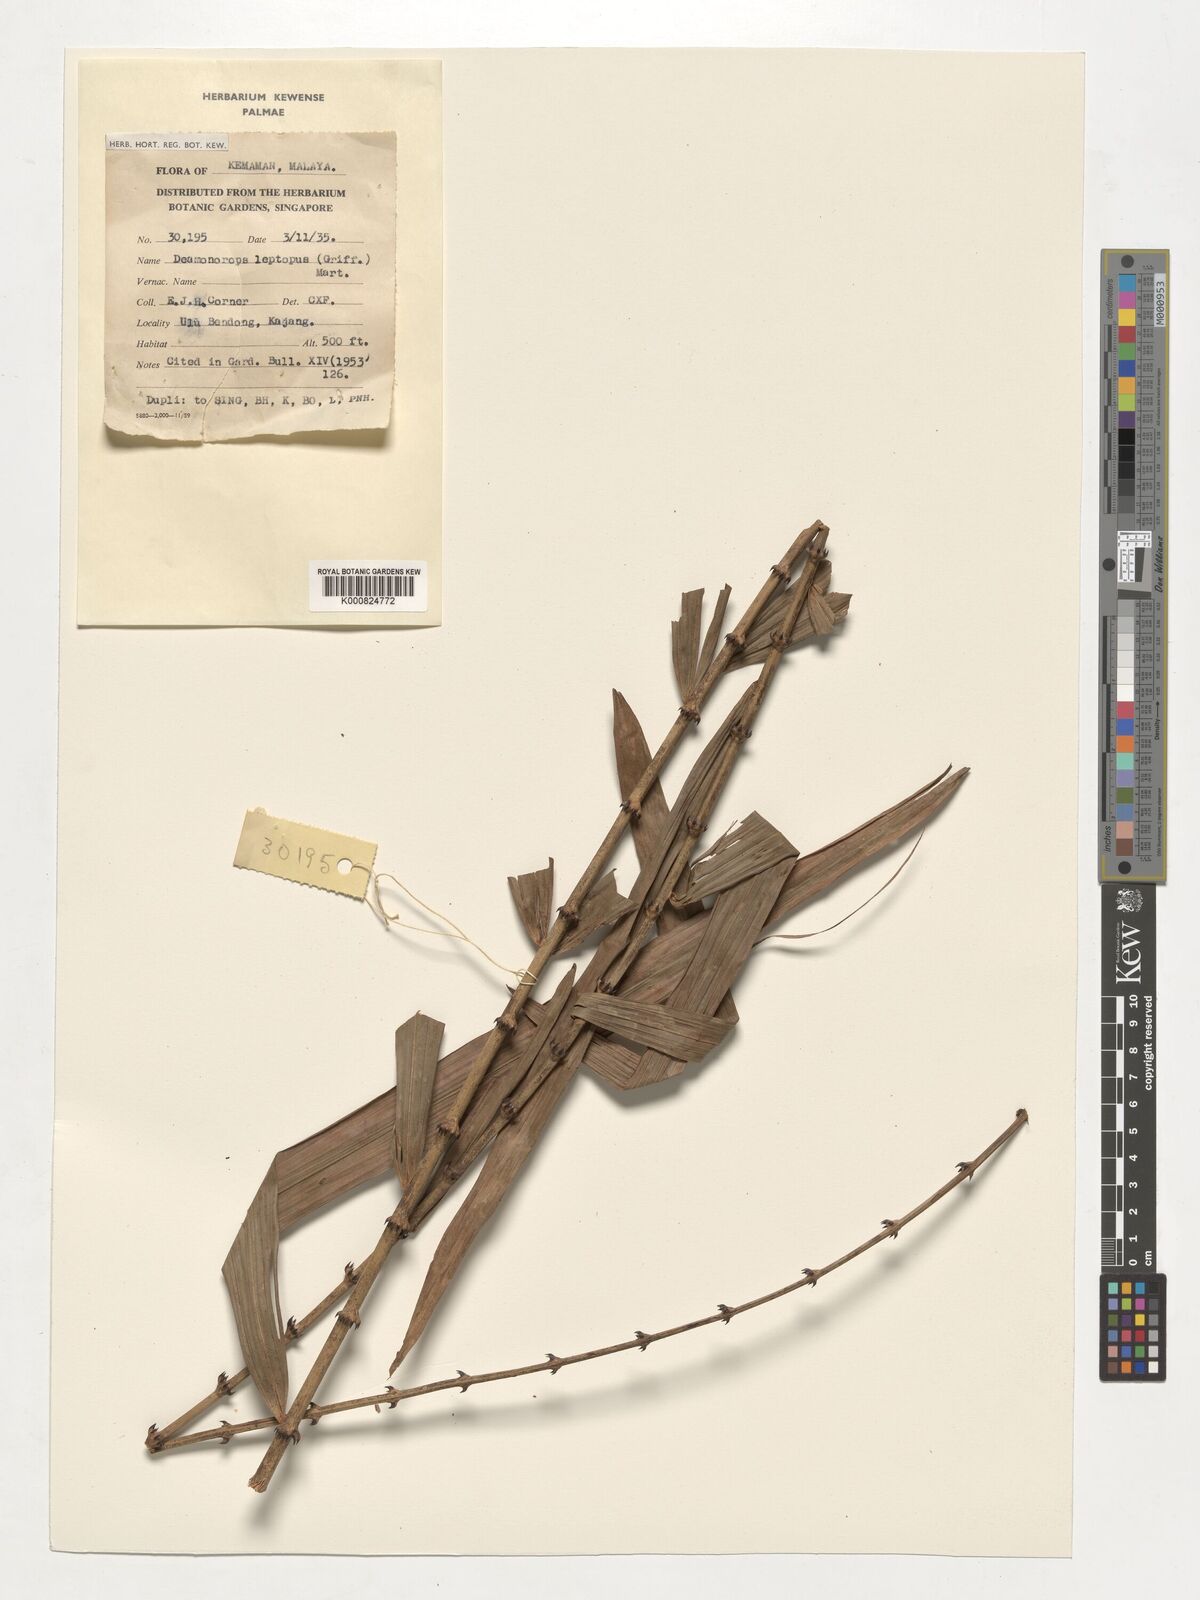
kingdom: Plantae
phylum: Tracheophyta
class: Liliopsida
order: Arecales
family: Arecaceae
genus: Calamus
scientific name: Calamus leptopus
